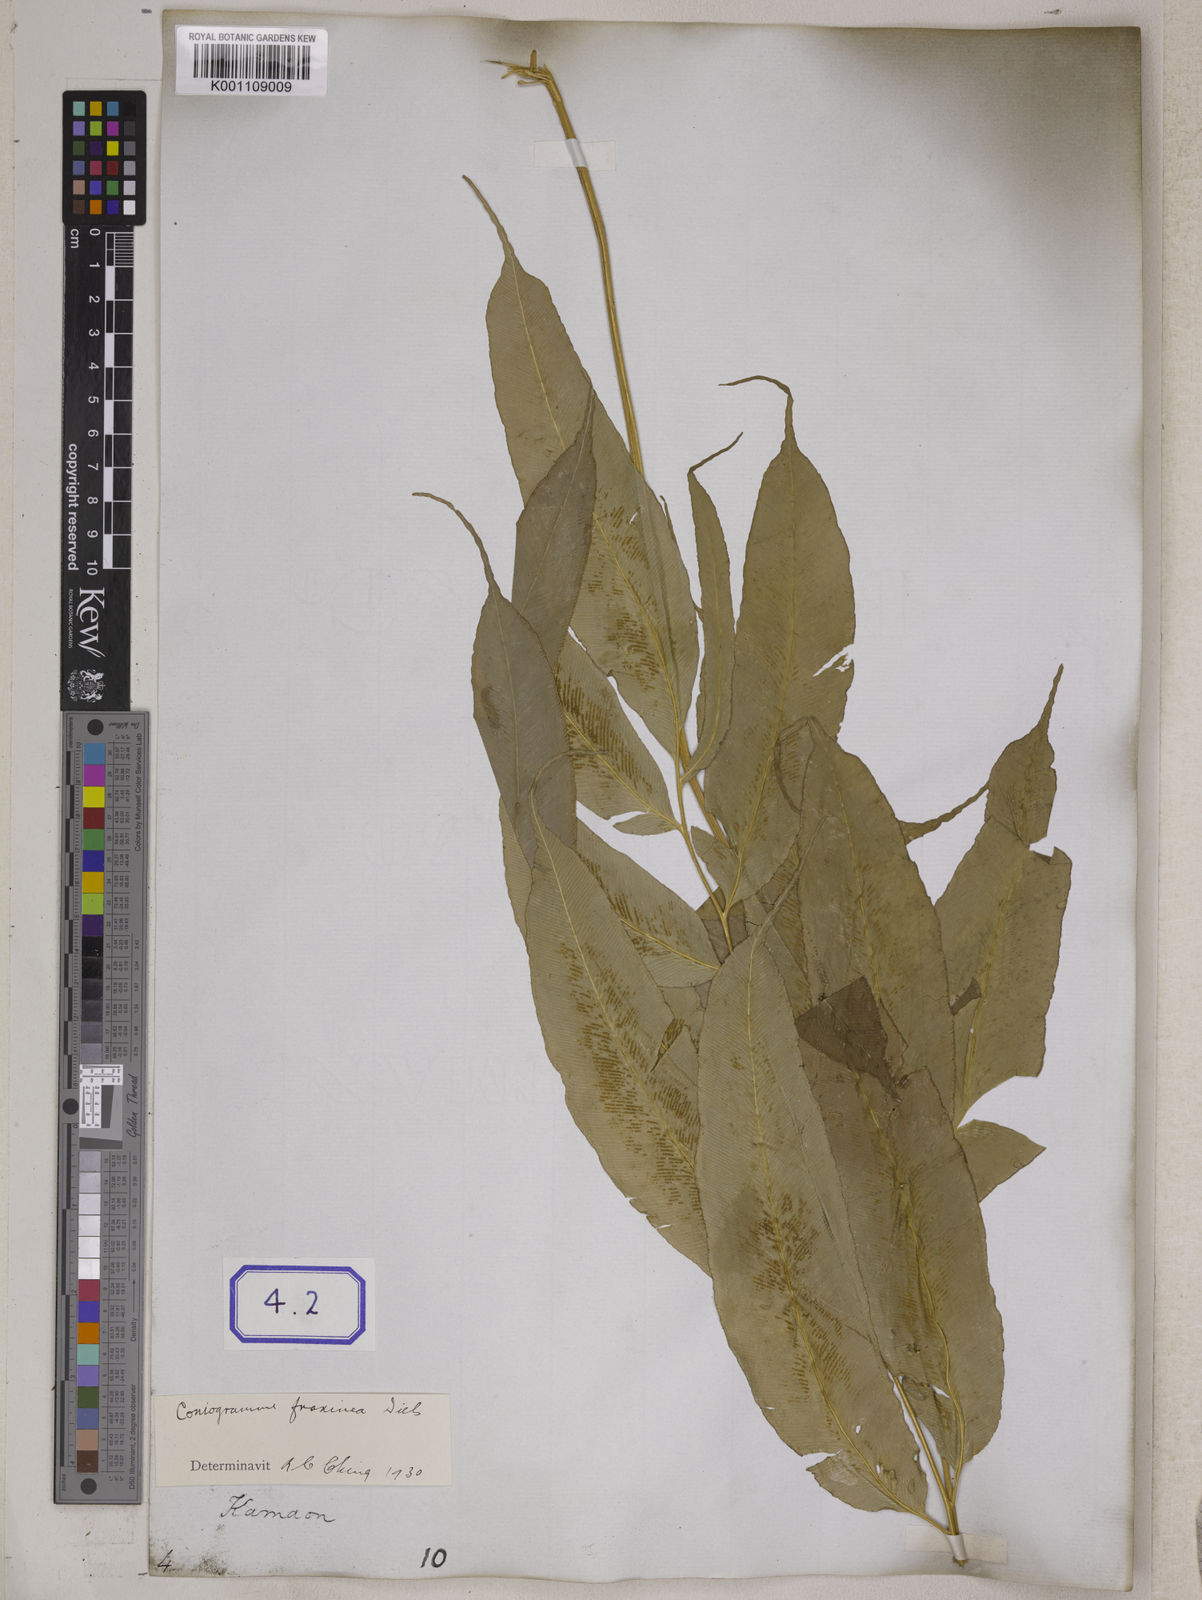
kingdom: Plantae
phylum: Tracheophyta
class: Polypodiopsida
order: Polypodiales
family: Pteridaceae
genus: Coniogramme
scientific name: Coniogramme serrulata
